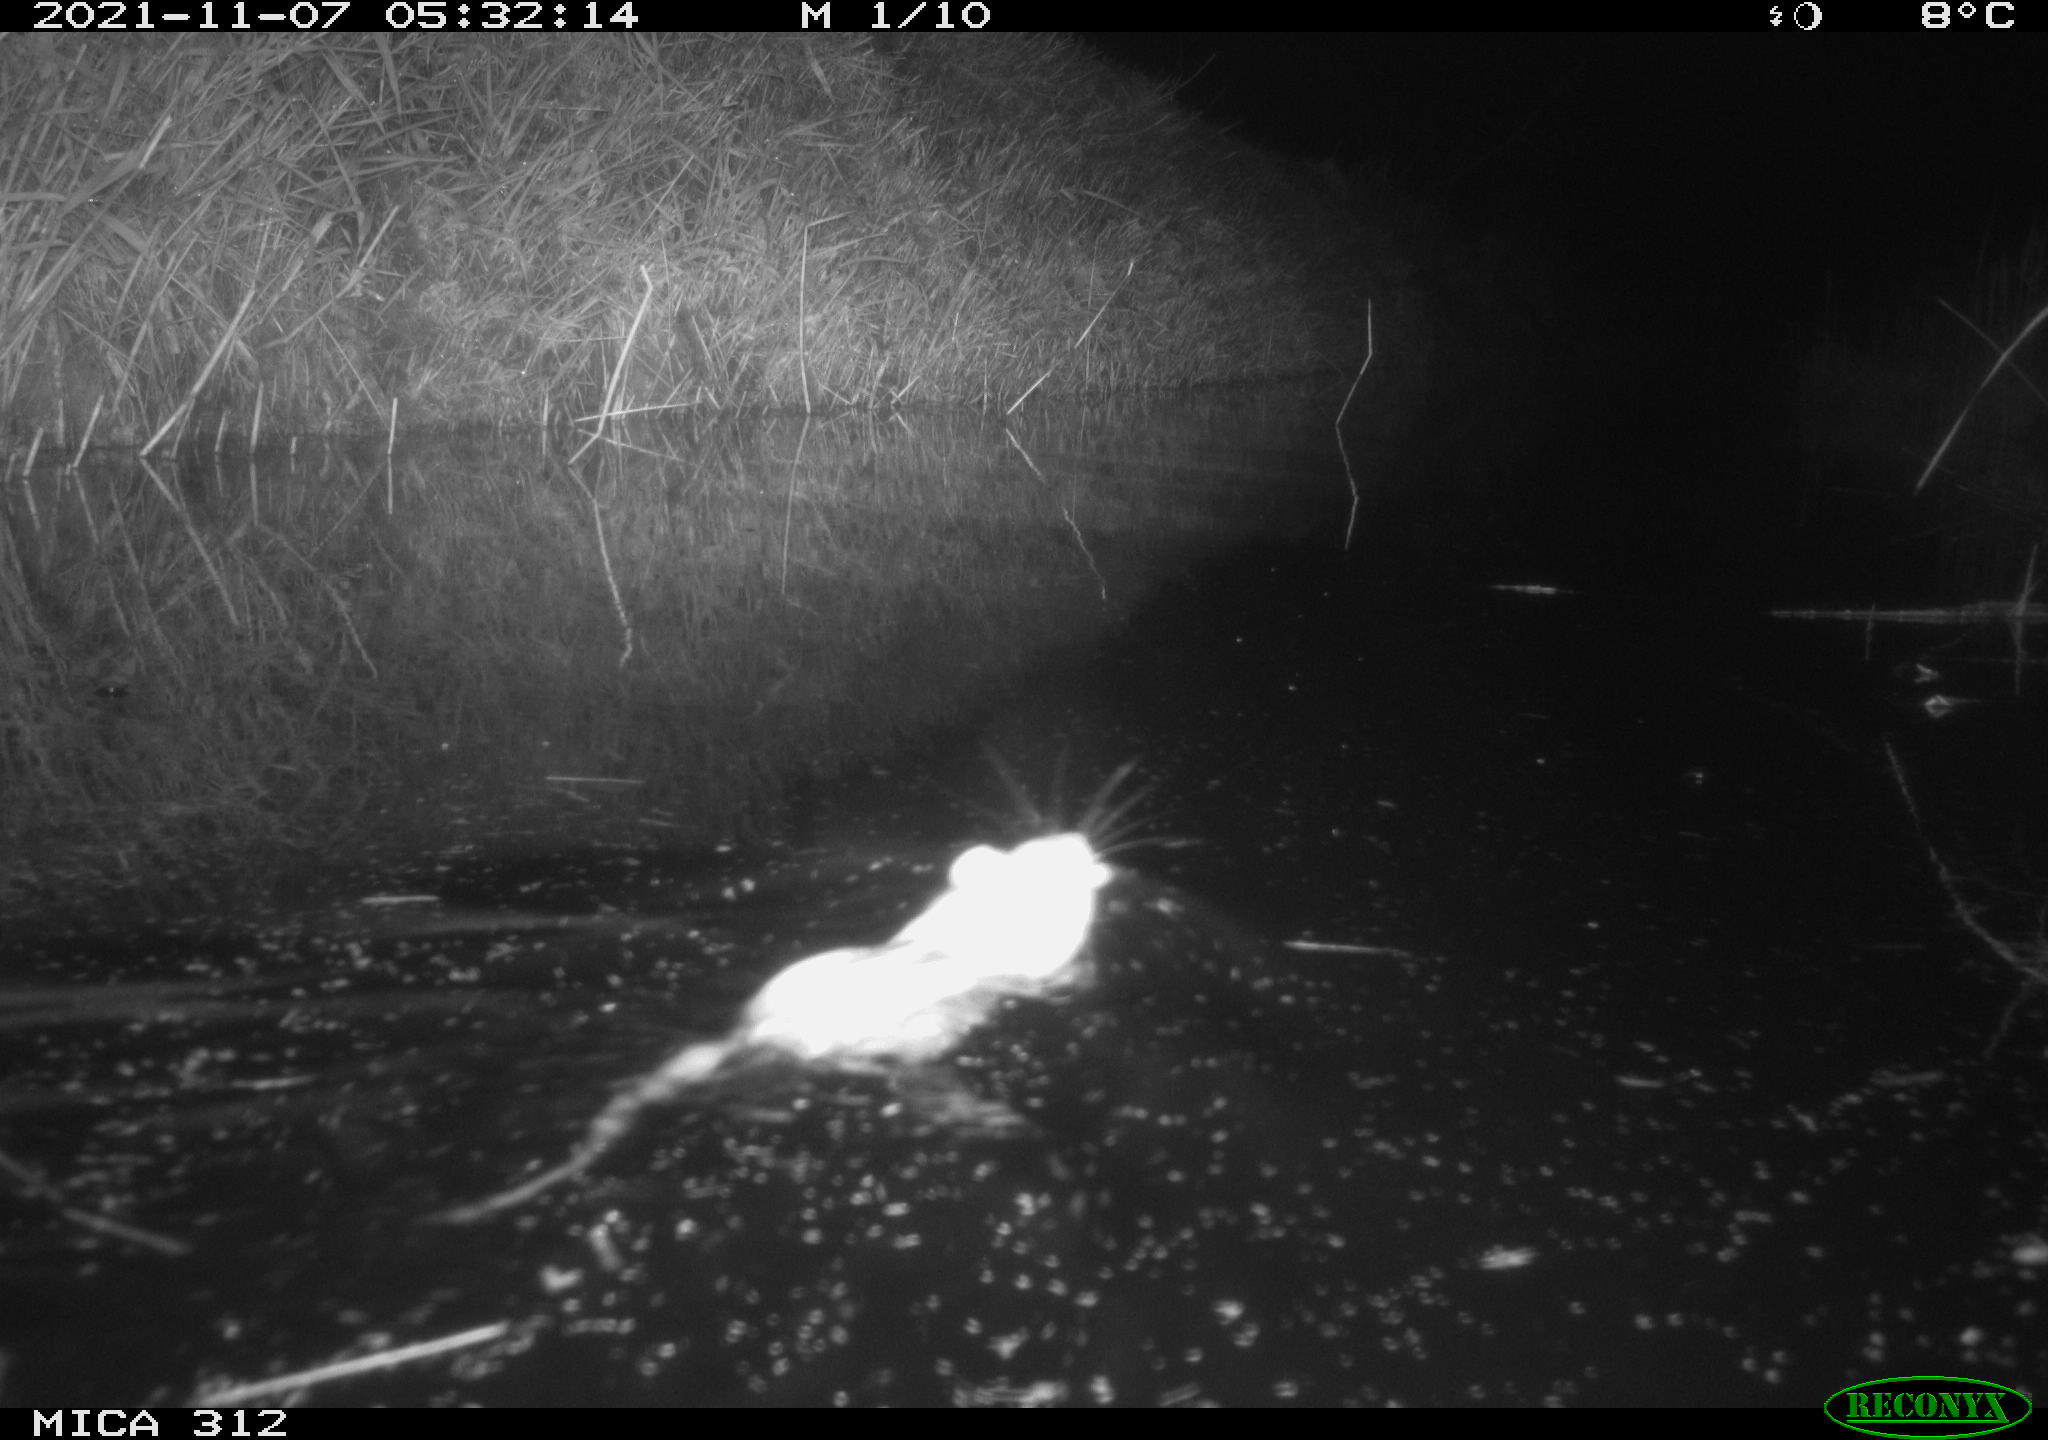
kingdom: Animalia
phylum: Chordata
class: Mammalia
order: Rodentia
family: Cricetidae
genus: Ondatra
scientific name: Ondatra zibethicus
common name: Muskrat
